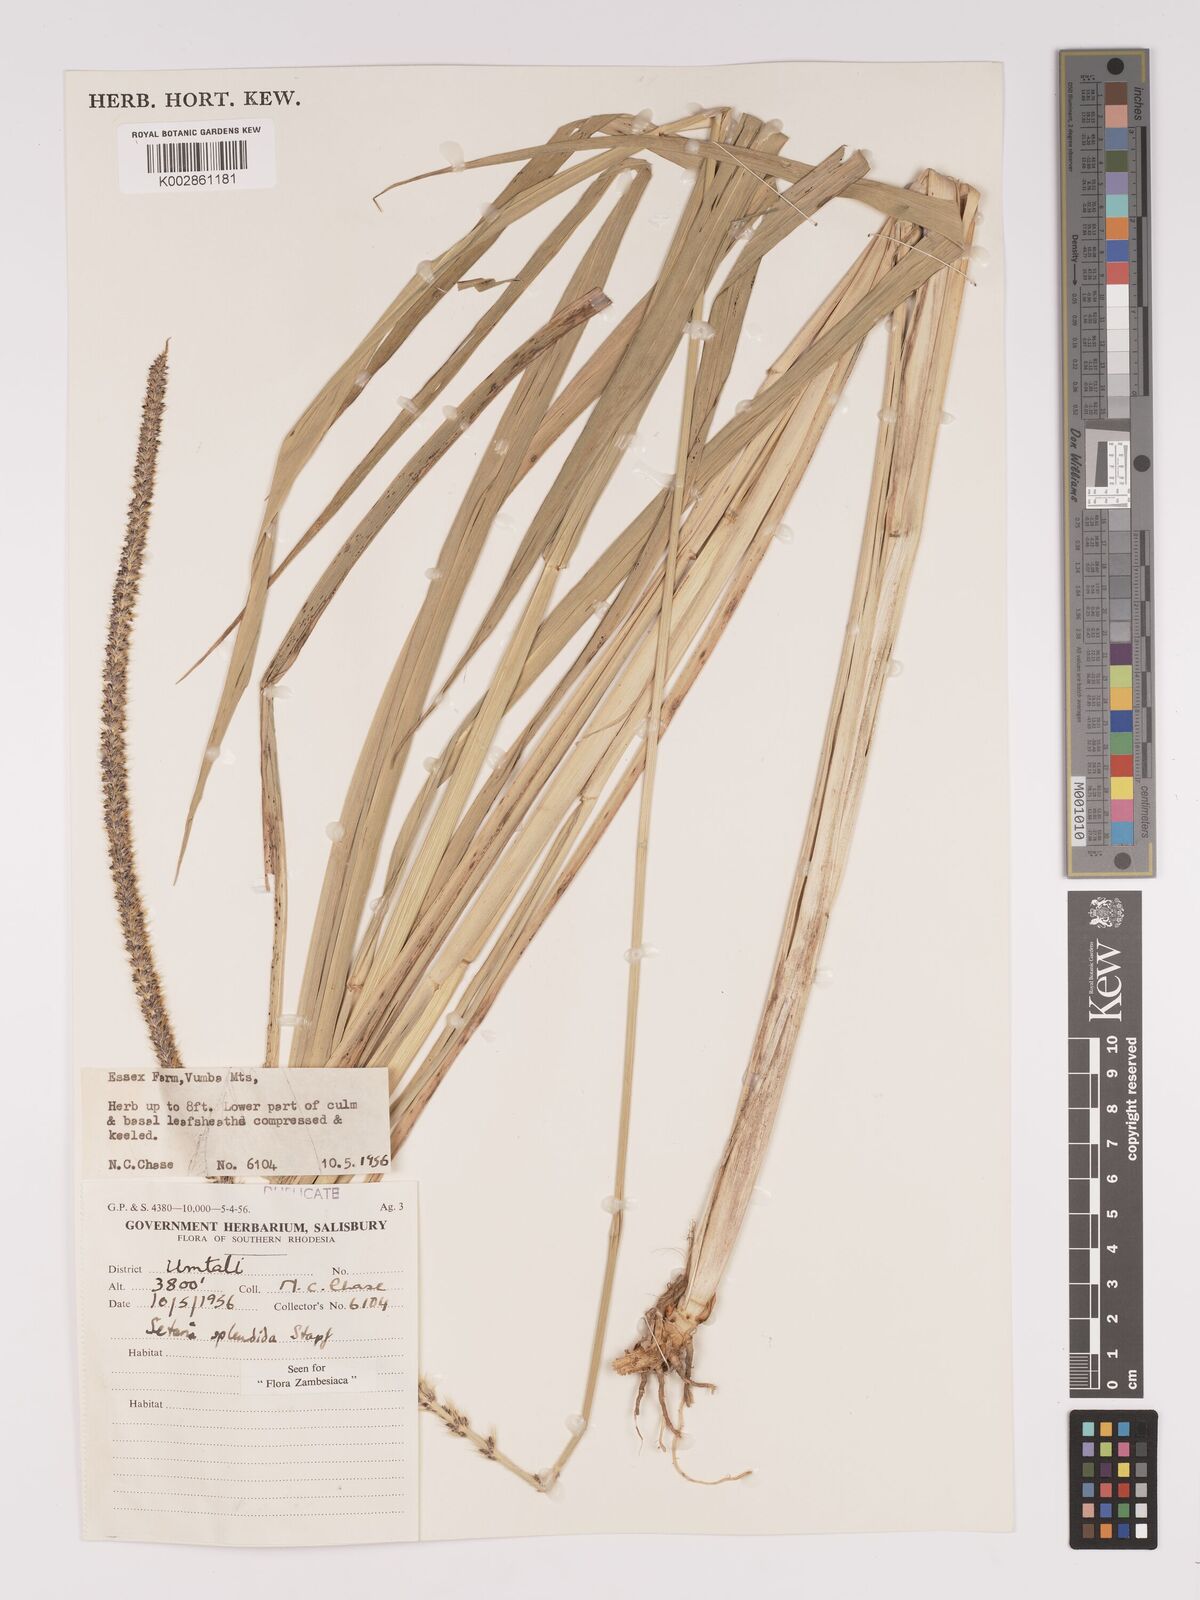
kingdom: Plantae
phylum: Tracheophyta
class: Liliopsida
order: Poales
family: Poaceae
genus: Setaria
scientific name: Setaria sphacelata
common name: African bristlegrass
